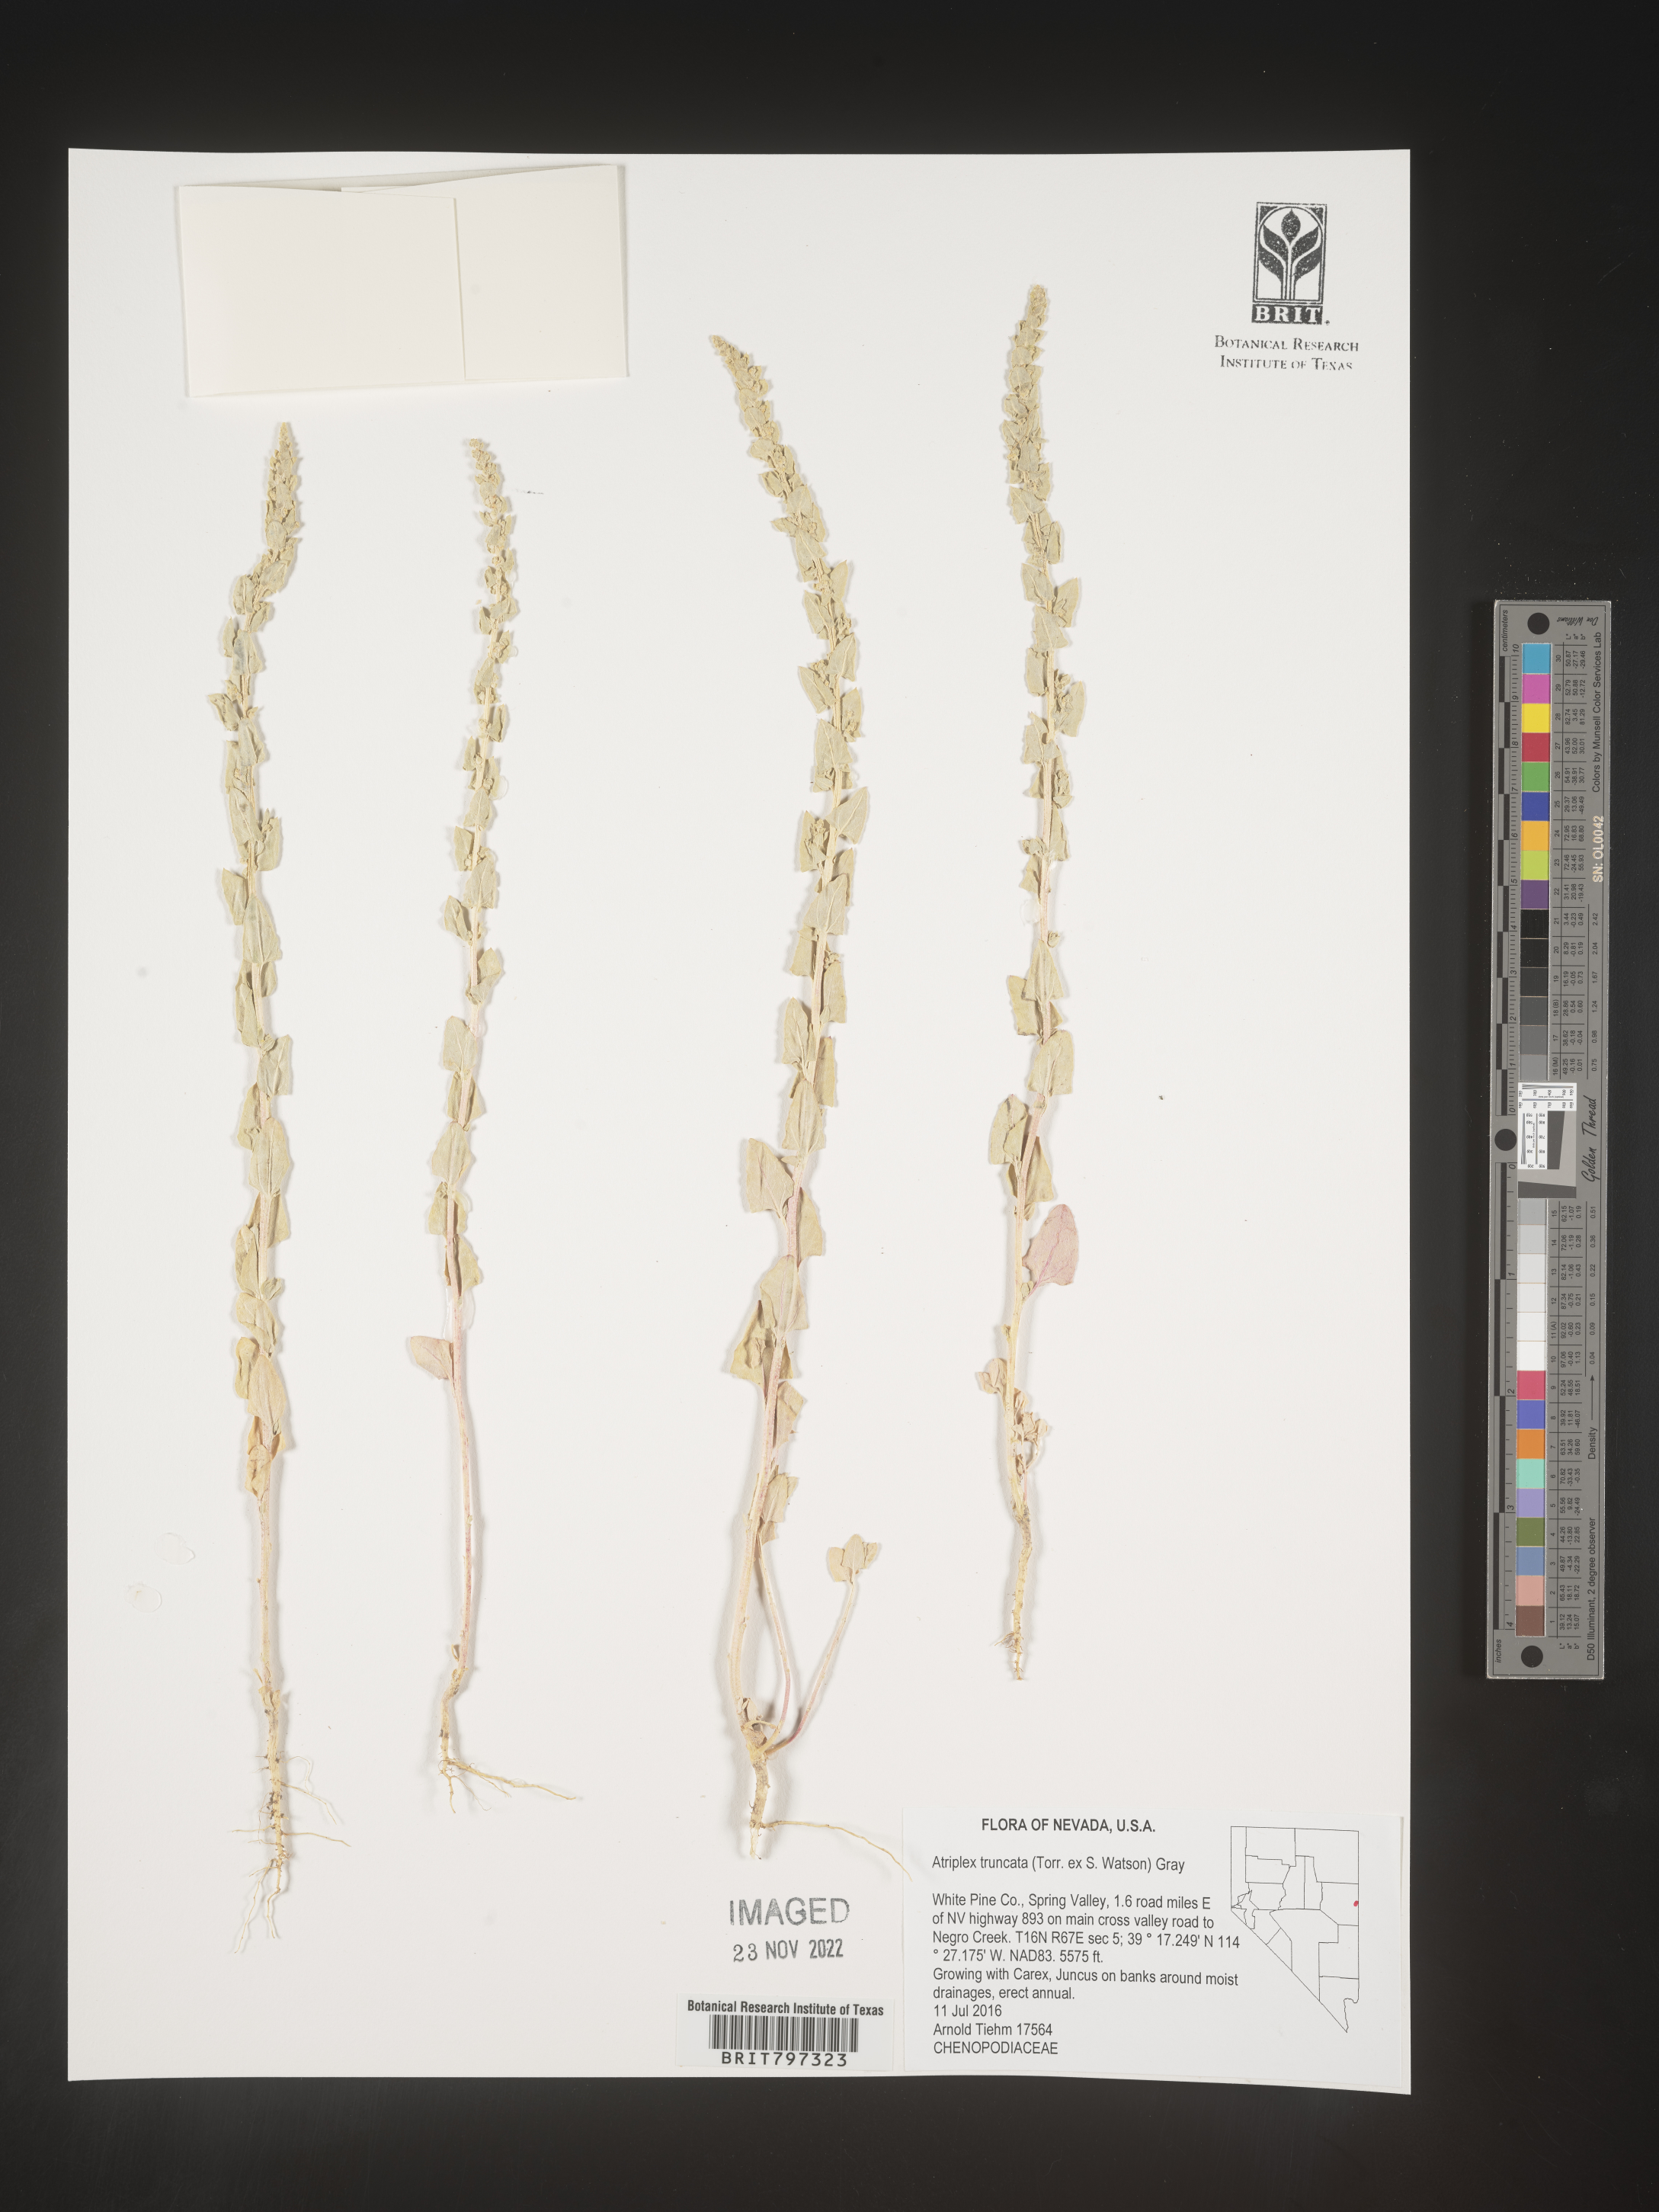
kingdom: Plantae
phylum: Tracheophyta
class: Magnoliopsida
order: Caryophyllales
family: Amaranthaceae
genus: Atriplex
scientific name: Atriplex
